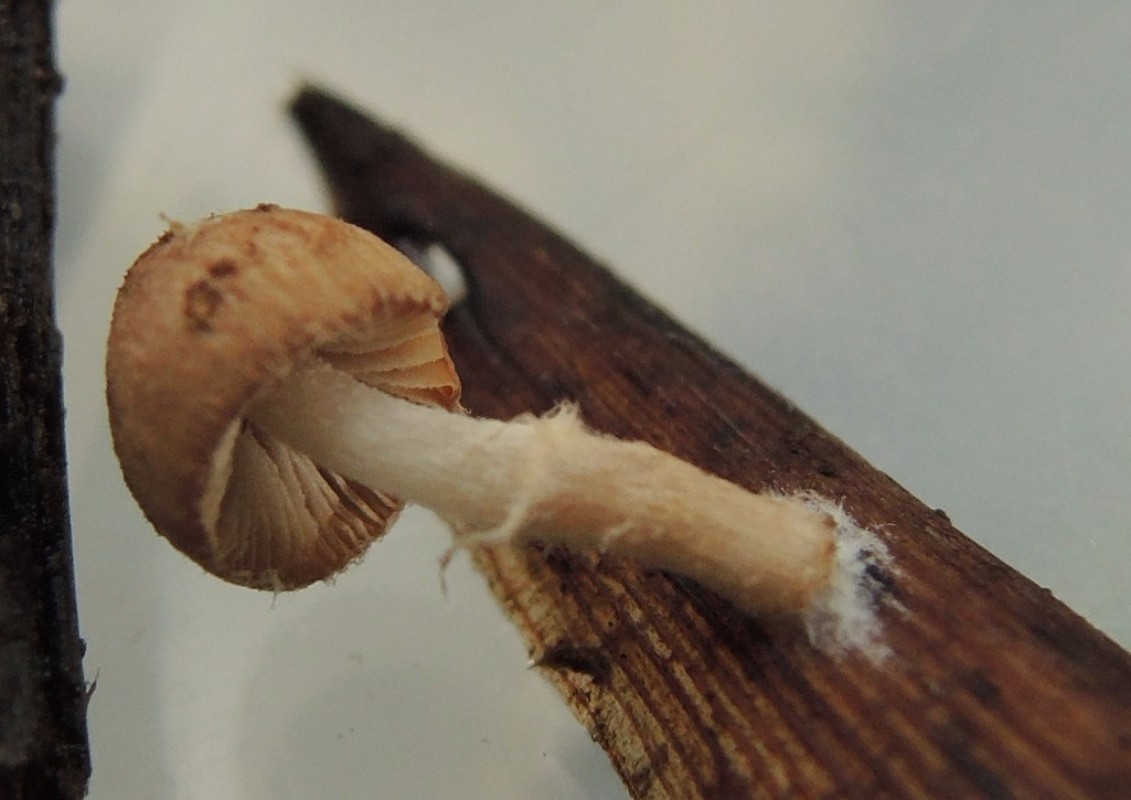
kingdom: Fungi
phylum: Basidiomycota
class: Agaricomycetes
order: Agaricales
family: Psathyrellaceae
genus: Candolleomyces
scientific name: Candolleomyces typhae
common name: dunhammer-mørkhat
